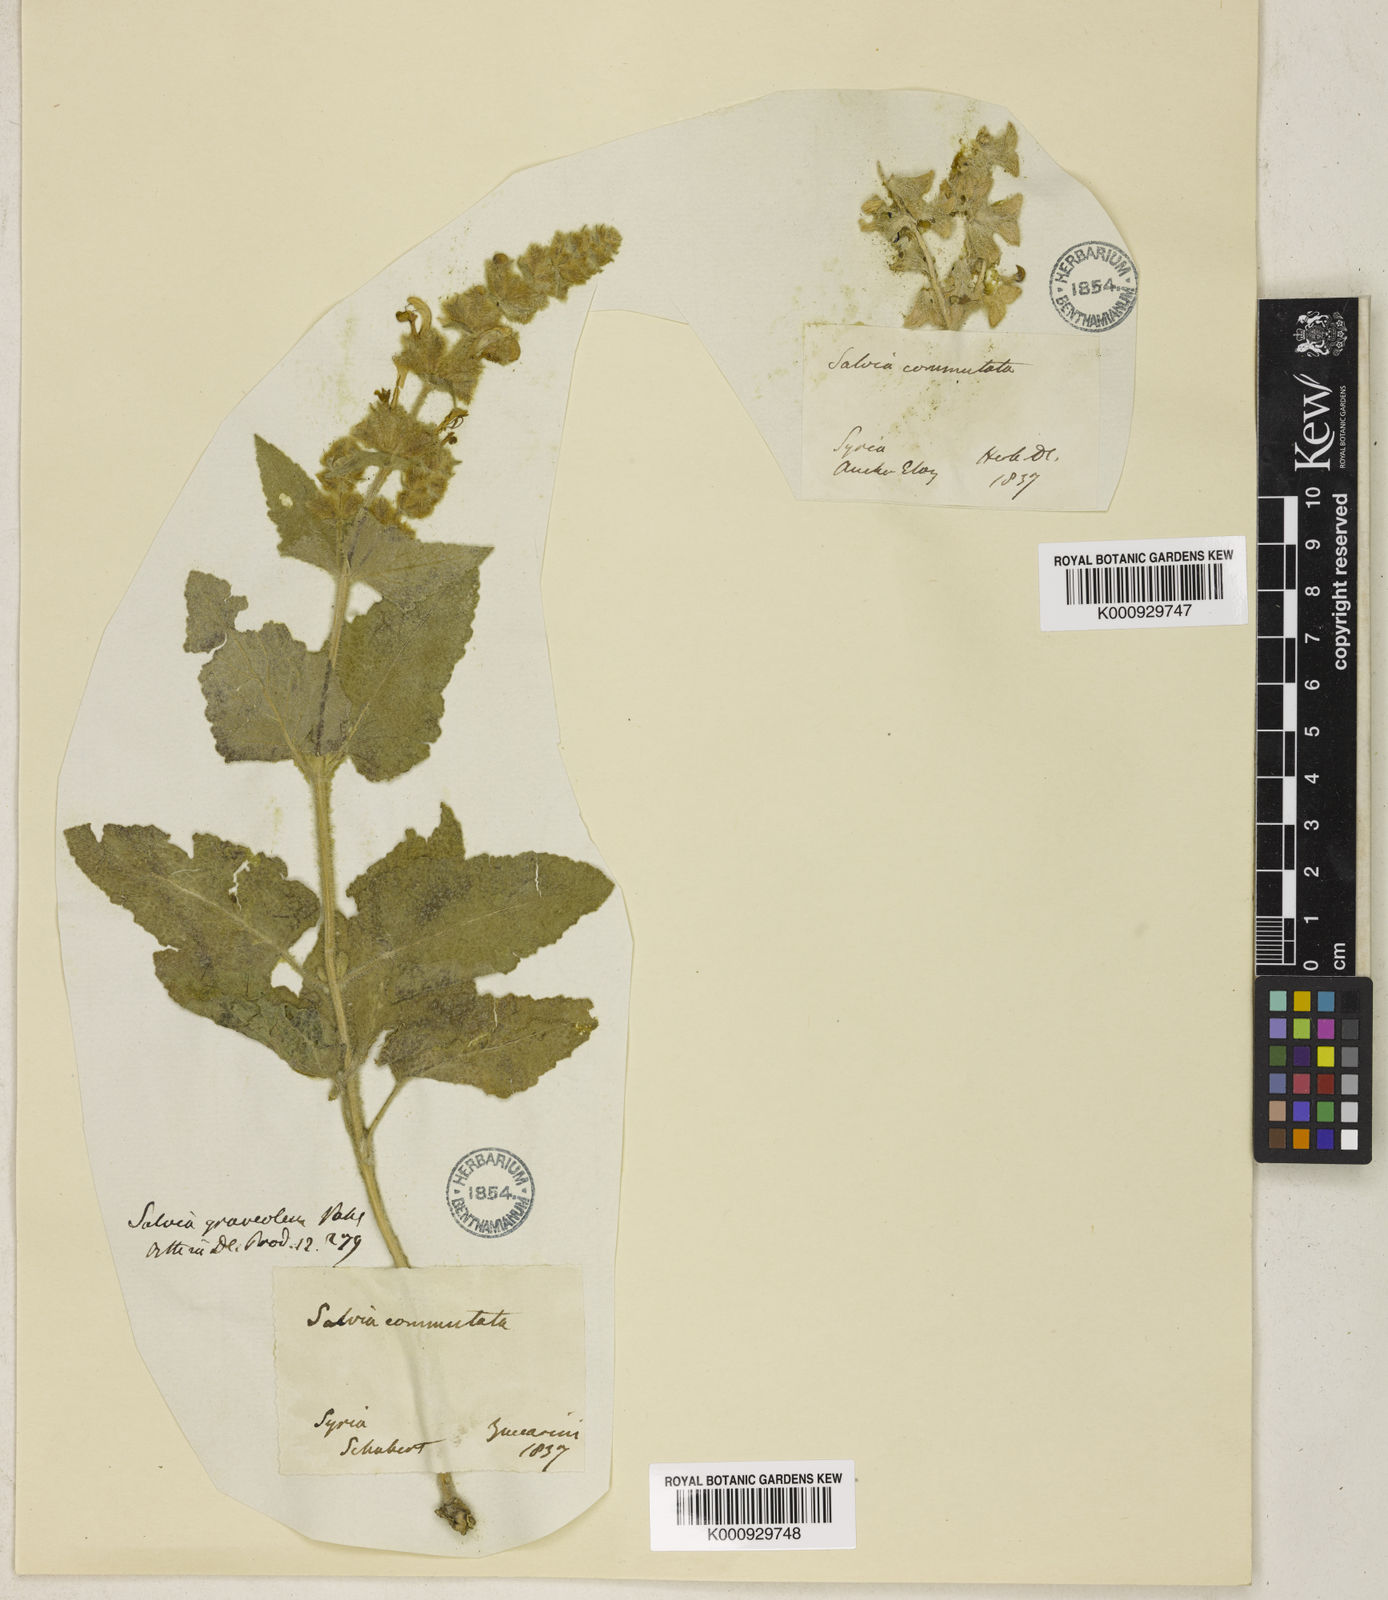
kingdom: Plantae
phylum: Tracheophyta
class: Magnoliopsida
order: Lamiales
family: Lamiaceae
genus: Salvia
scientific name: Salvia dominica
